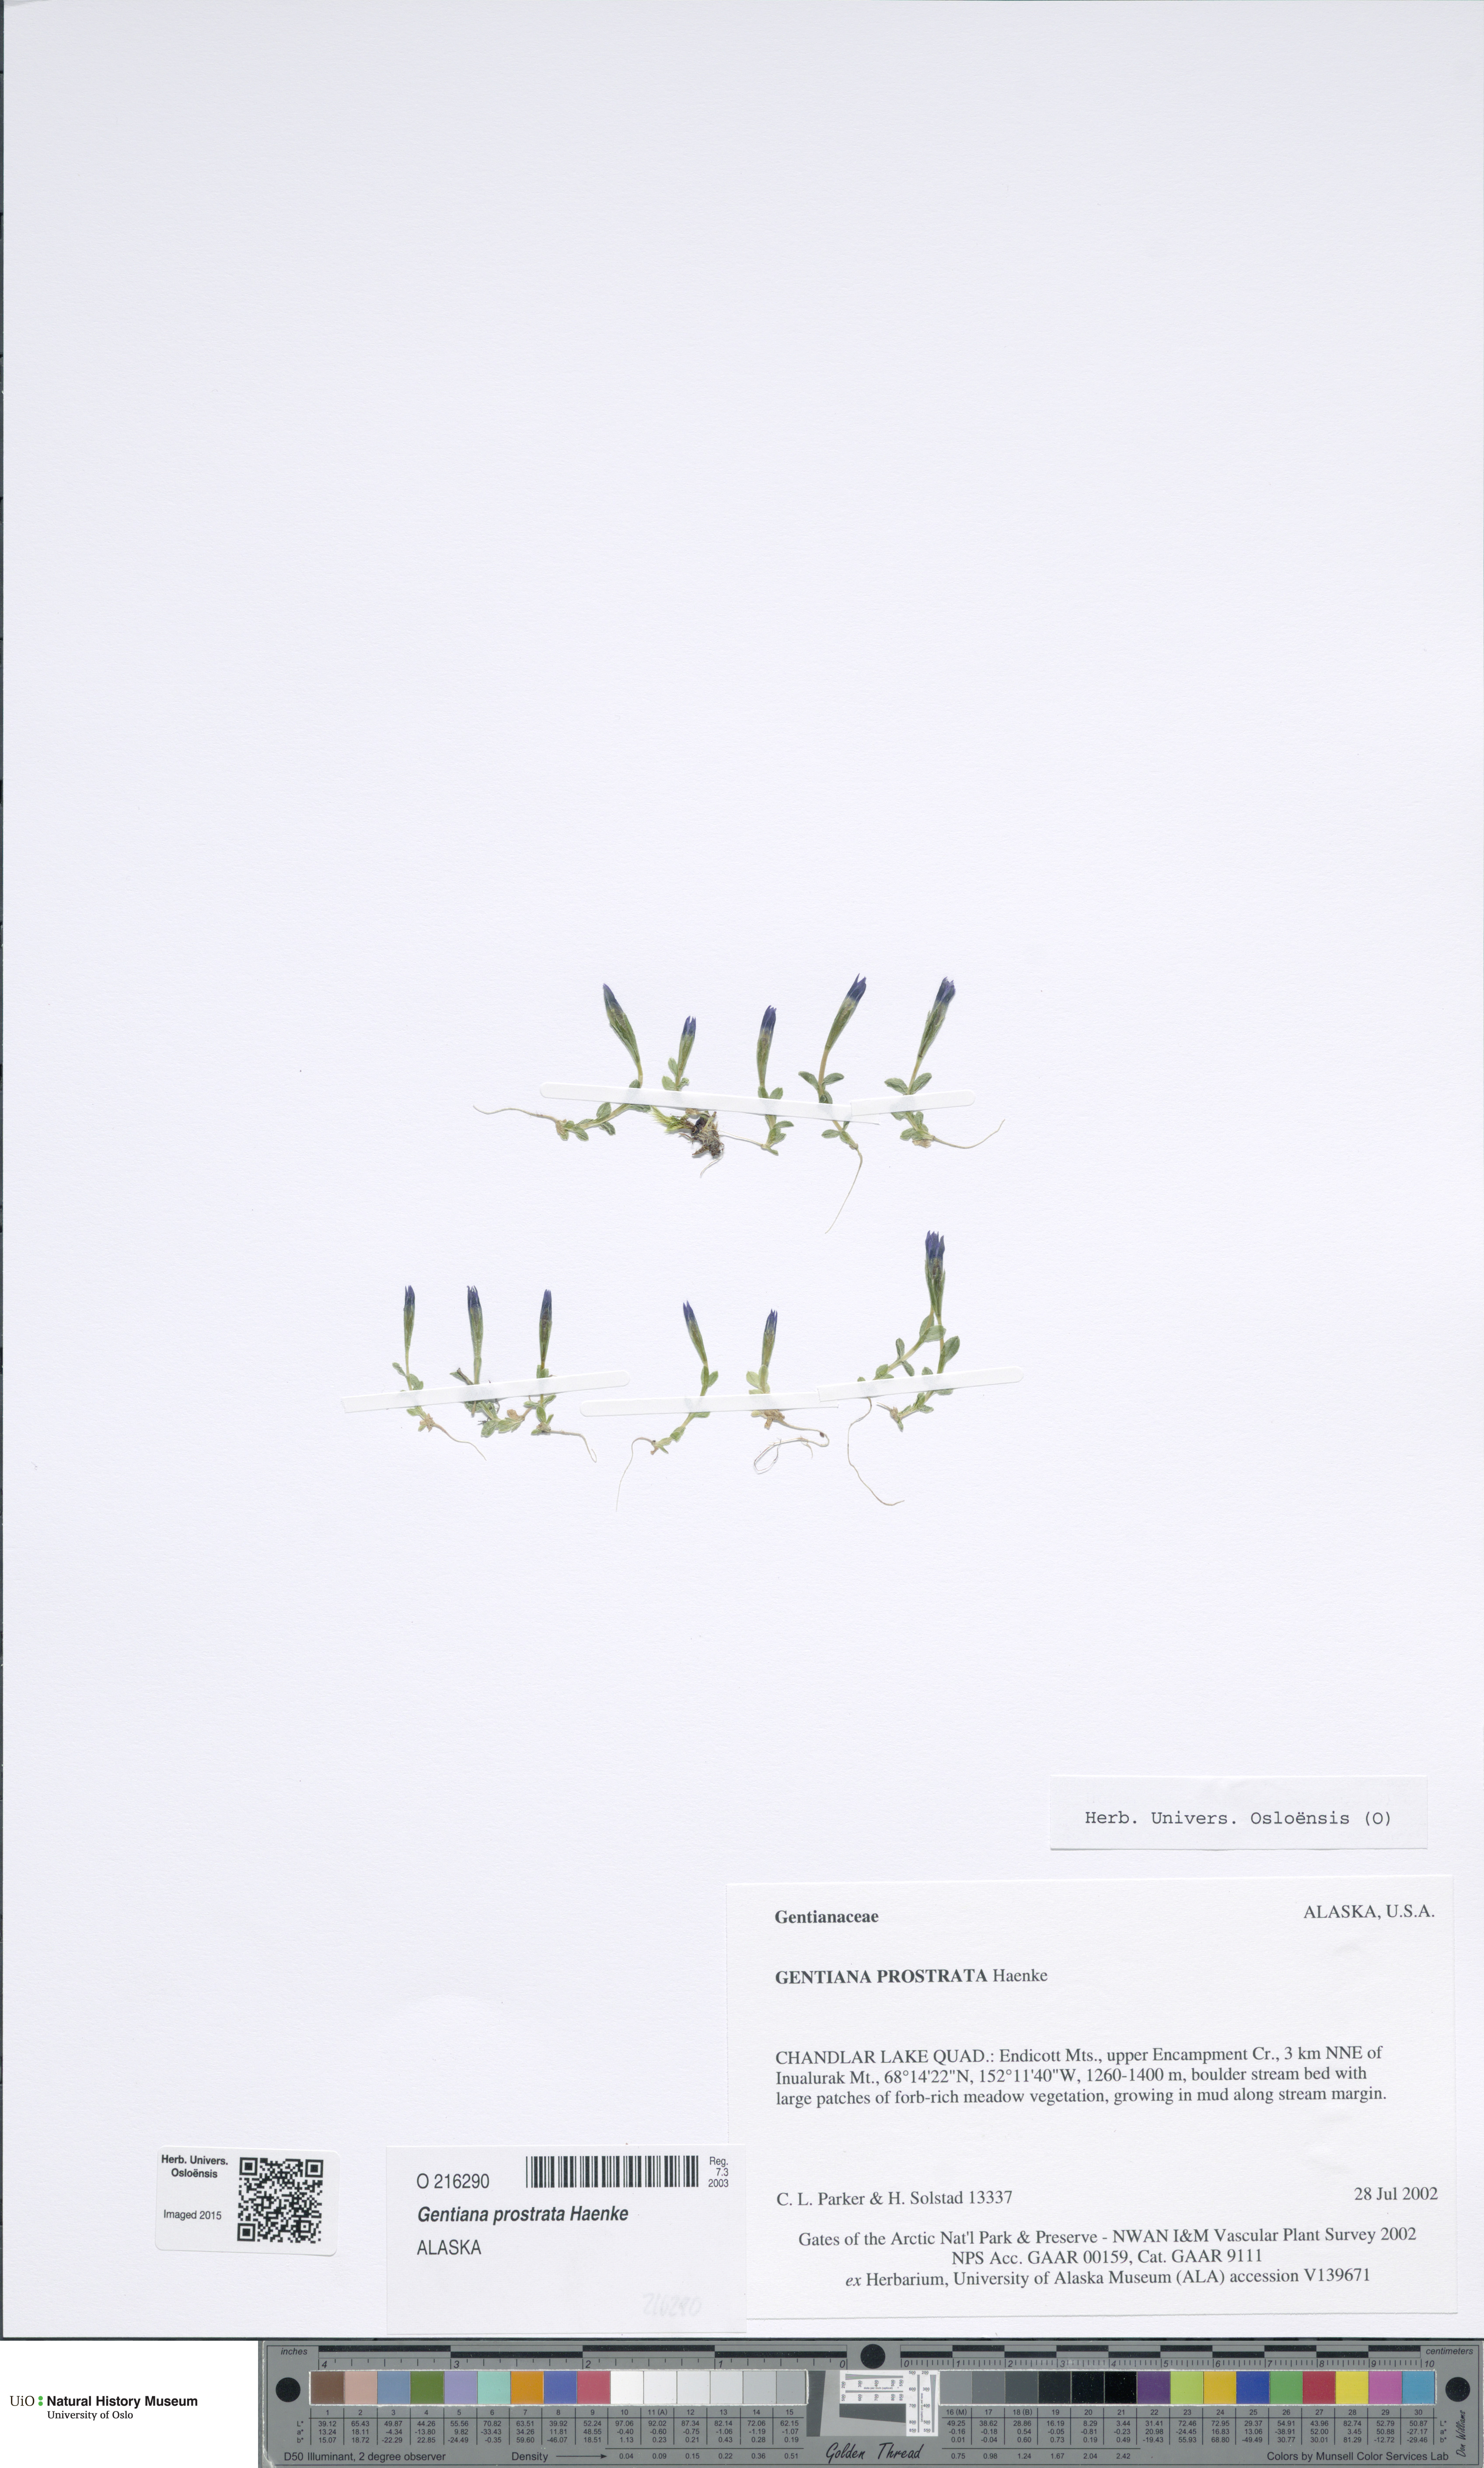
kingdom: Plantae
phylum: Tracheophyta
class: Magnoliopsida
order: Gentianales
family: Gentianaceae
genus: Gentiana
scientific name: Gentiana prostrata
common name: Moss gentian
